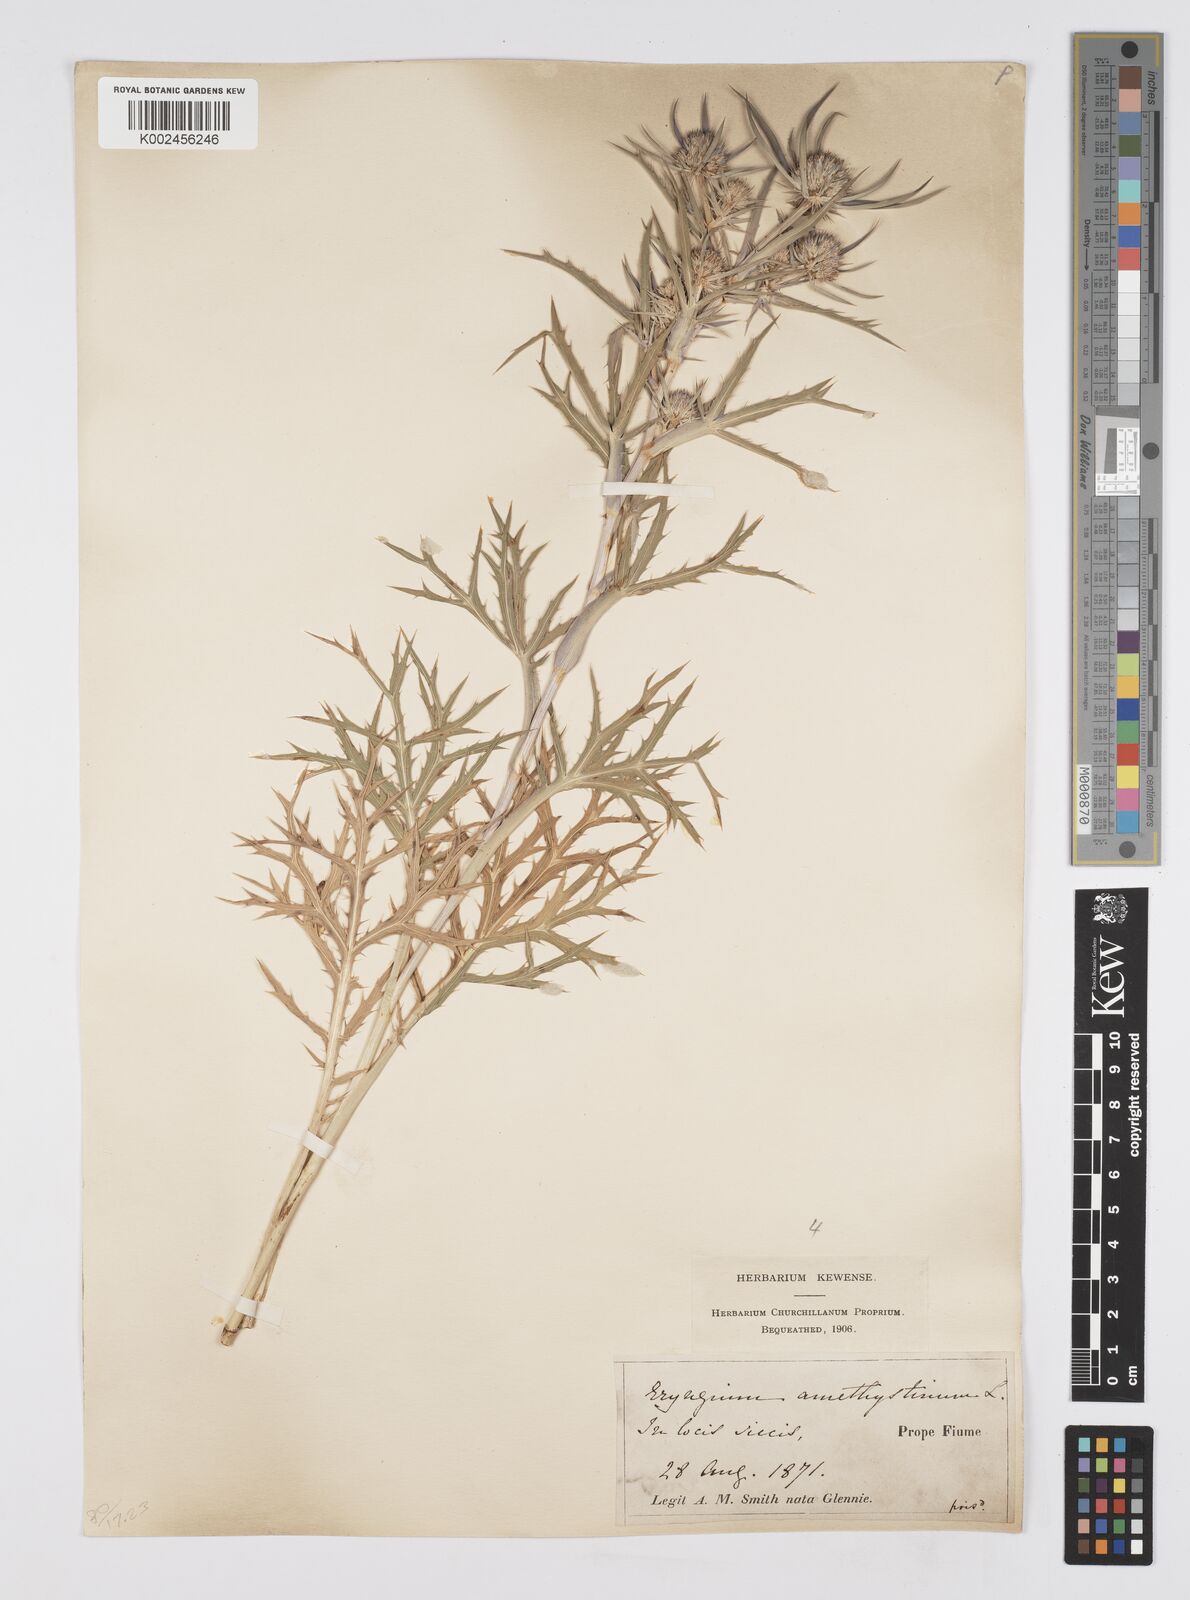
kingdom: Plantae
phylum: Tracheophyta
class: Magnoliopsida
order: Apiales
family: Apiaceae
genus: Eryngium
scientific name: Eryngium amethystinum
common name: Amethyst eryngo
